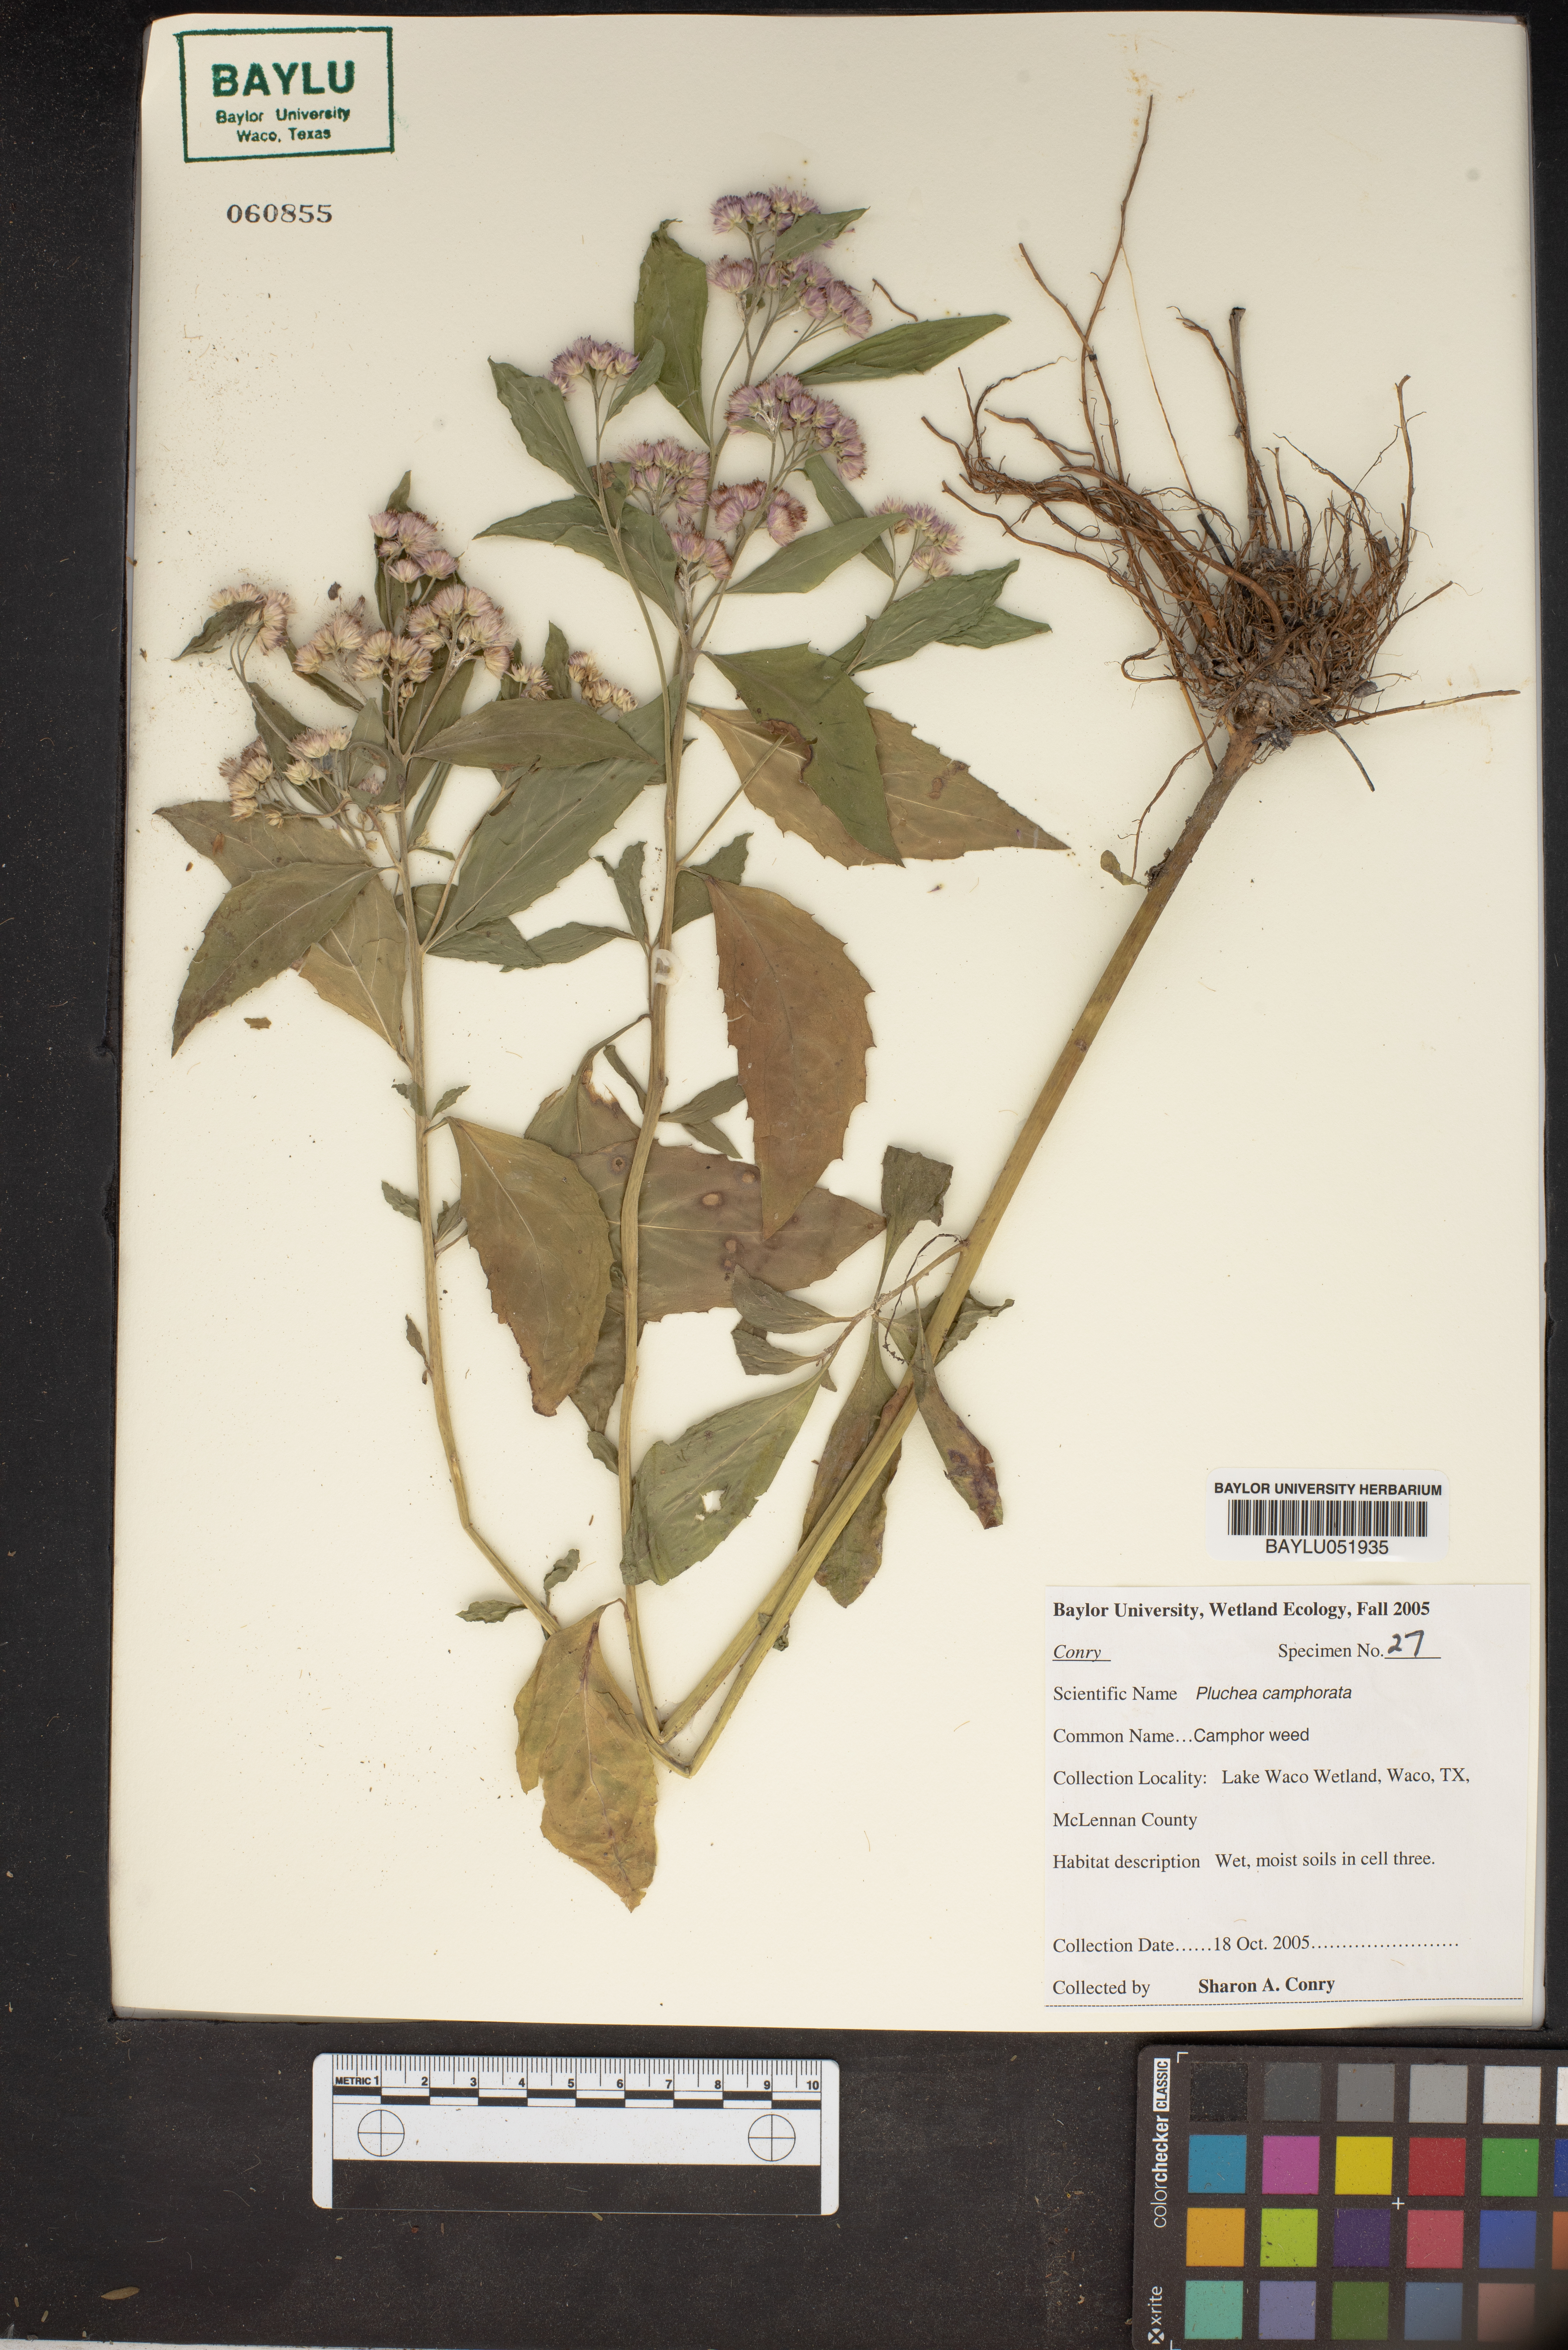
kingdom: Plantae
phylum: Tracheophyta
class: Magnoliopsida
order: Asterales
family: Asteraceae
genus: Pluchea
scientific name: Pluchea camphorata
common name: Camphor pluchea
